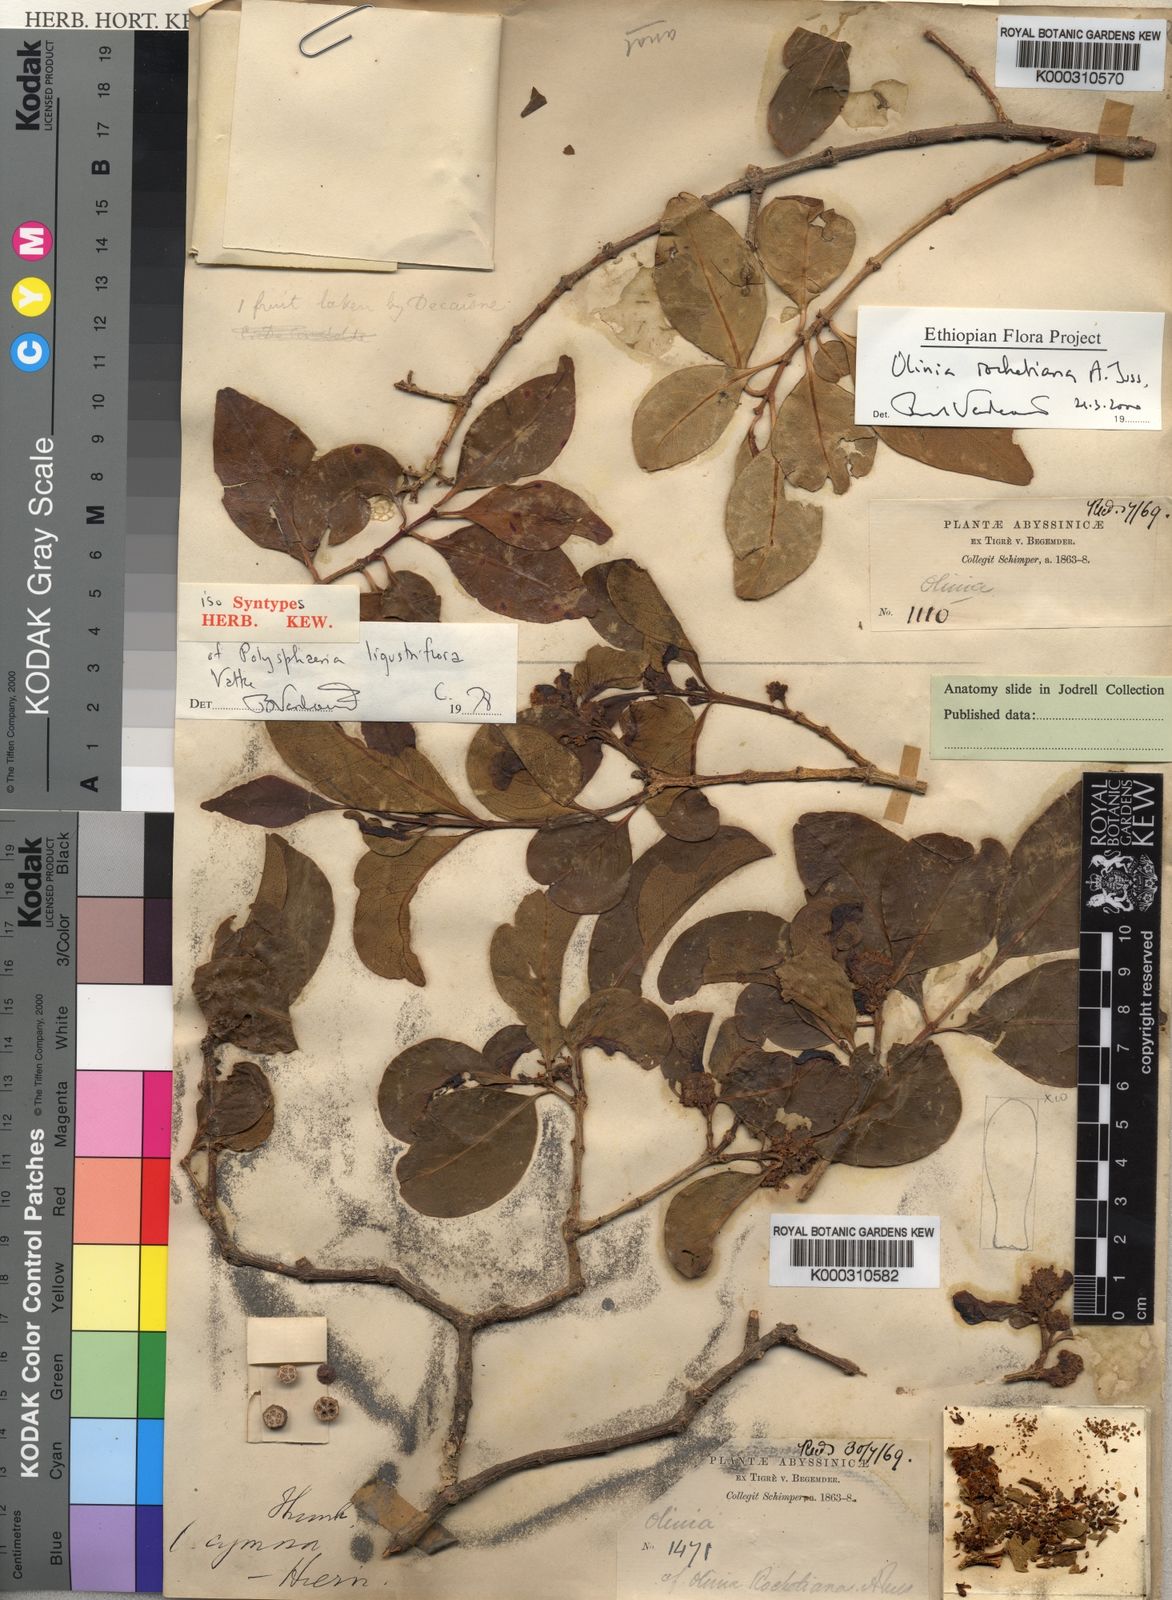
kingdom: Plantae
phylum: Tracheophyta
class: Magnoliopsida
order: Myrtales
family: Penaeaceae
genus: Olinia
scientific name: Olinia
